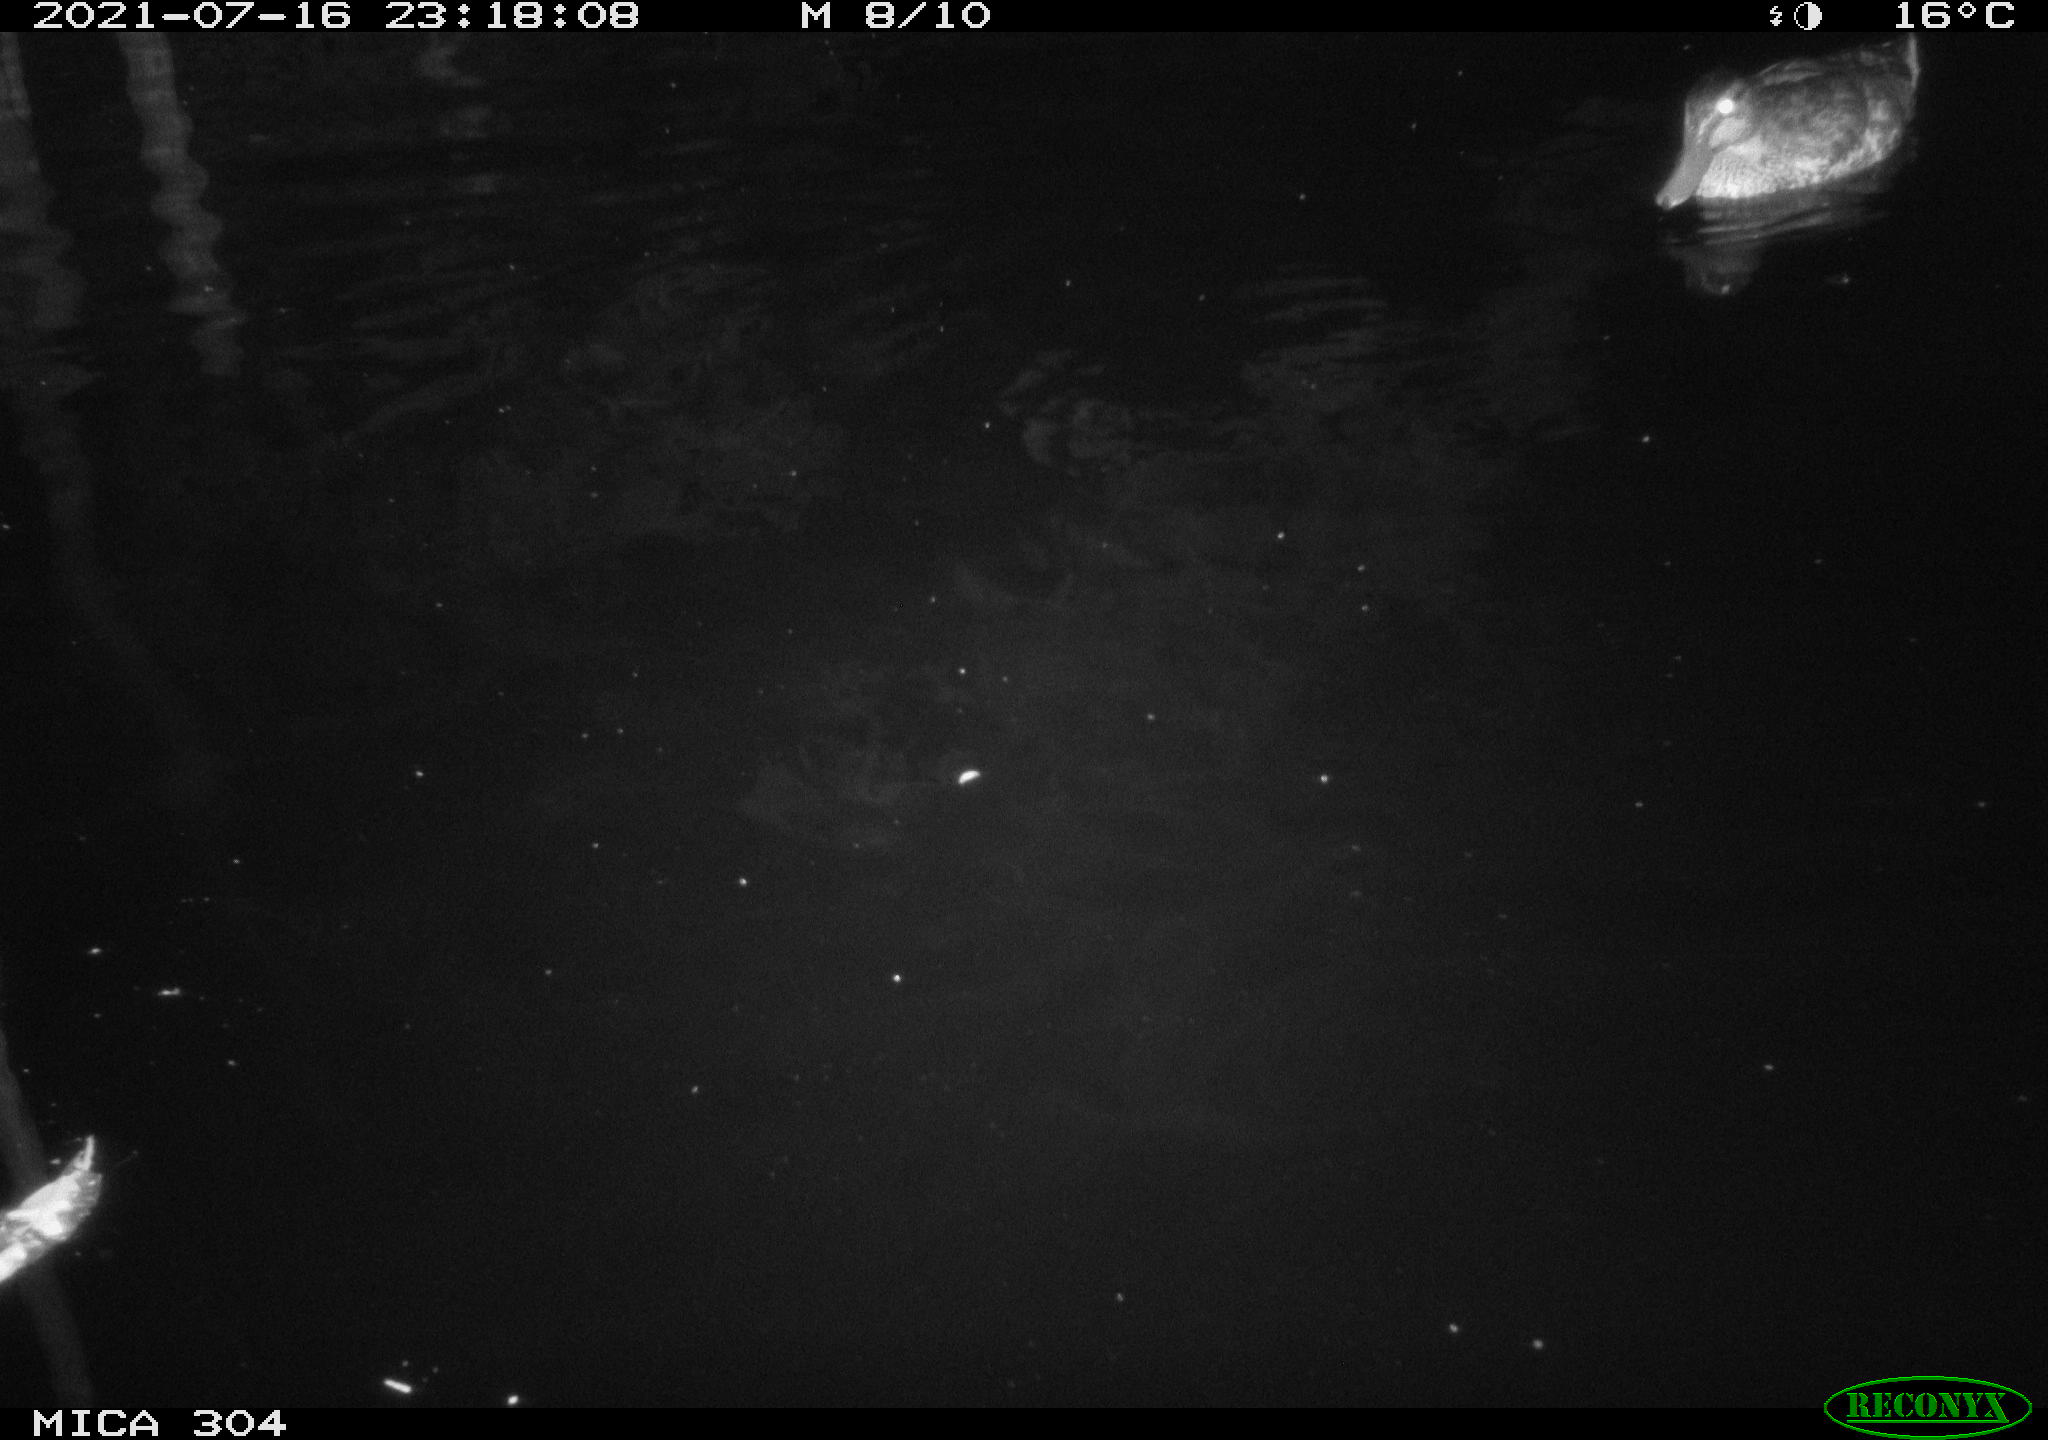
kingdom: Animalia
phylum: Chordata
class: Aves
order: Anseriformes
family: Anatidae
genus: Anas
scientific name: Anas platyrhynchos
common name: Mallard
